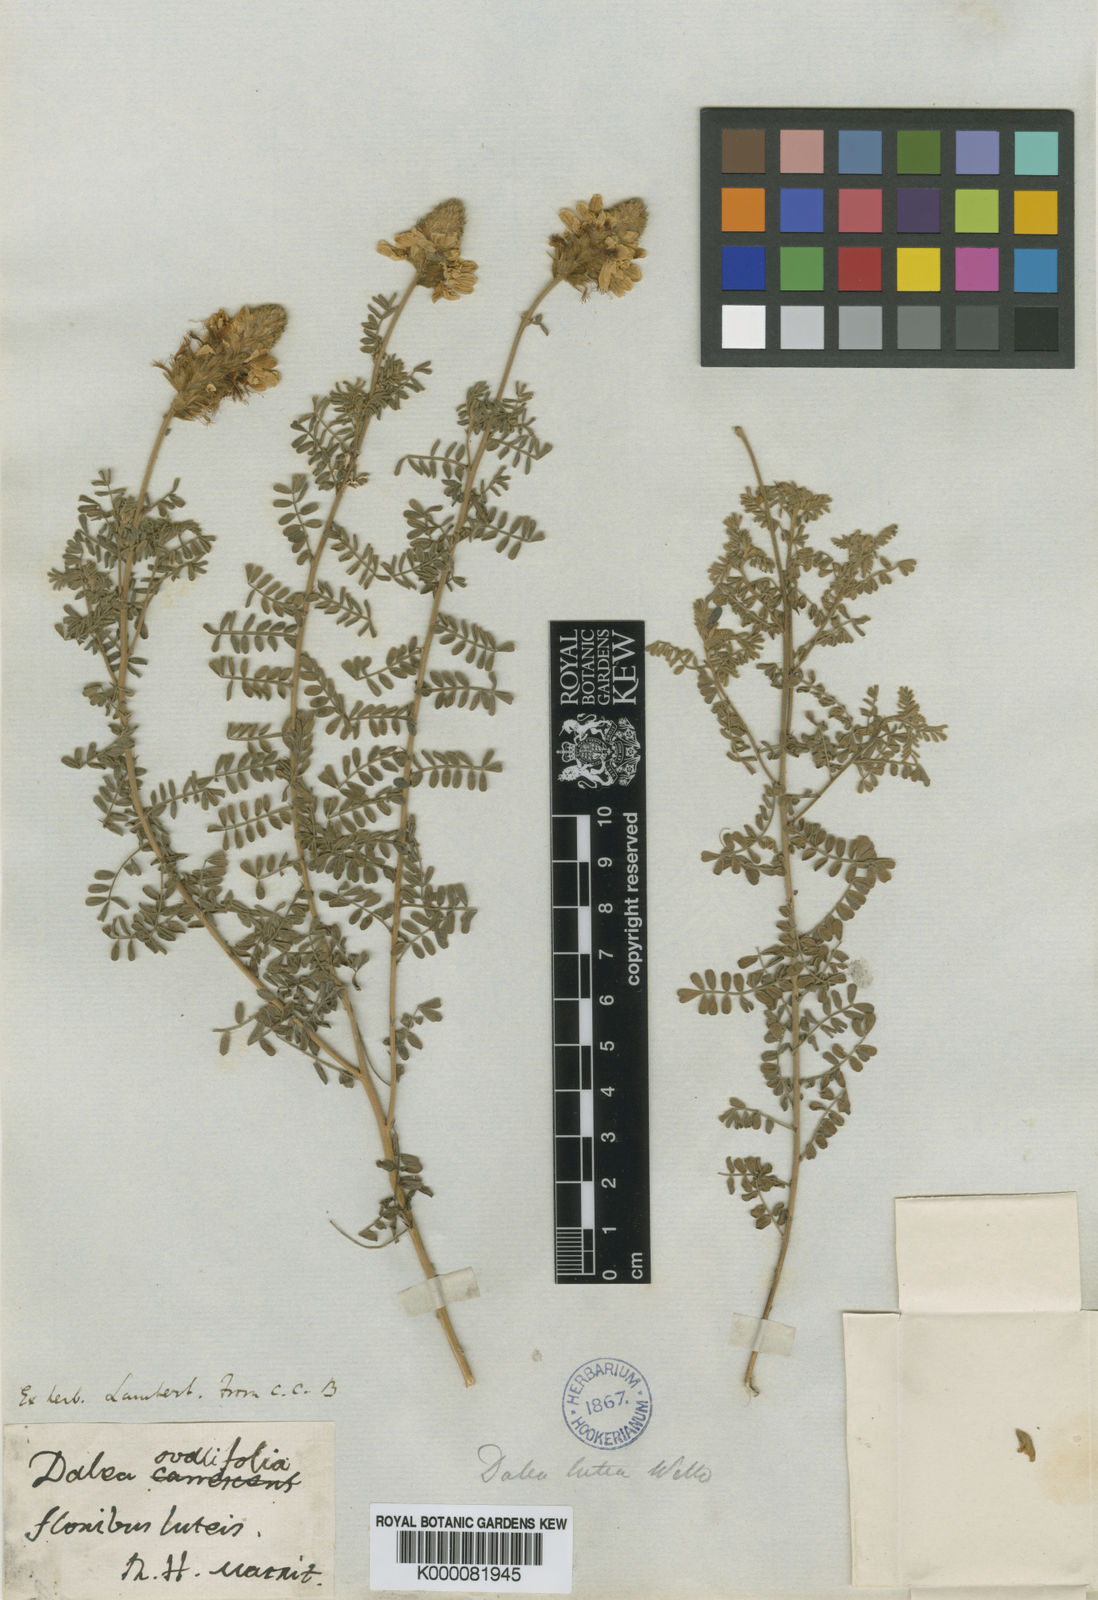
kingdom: Plantae
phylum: Tracheophyta
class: Magnoliopsida
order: Fabales
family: Fabaceae
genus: Dalea
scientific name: Dalea lutea
